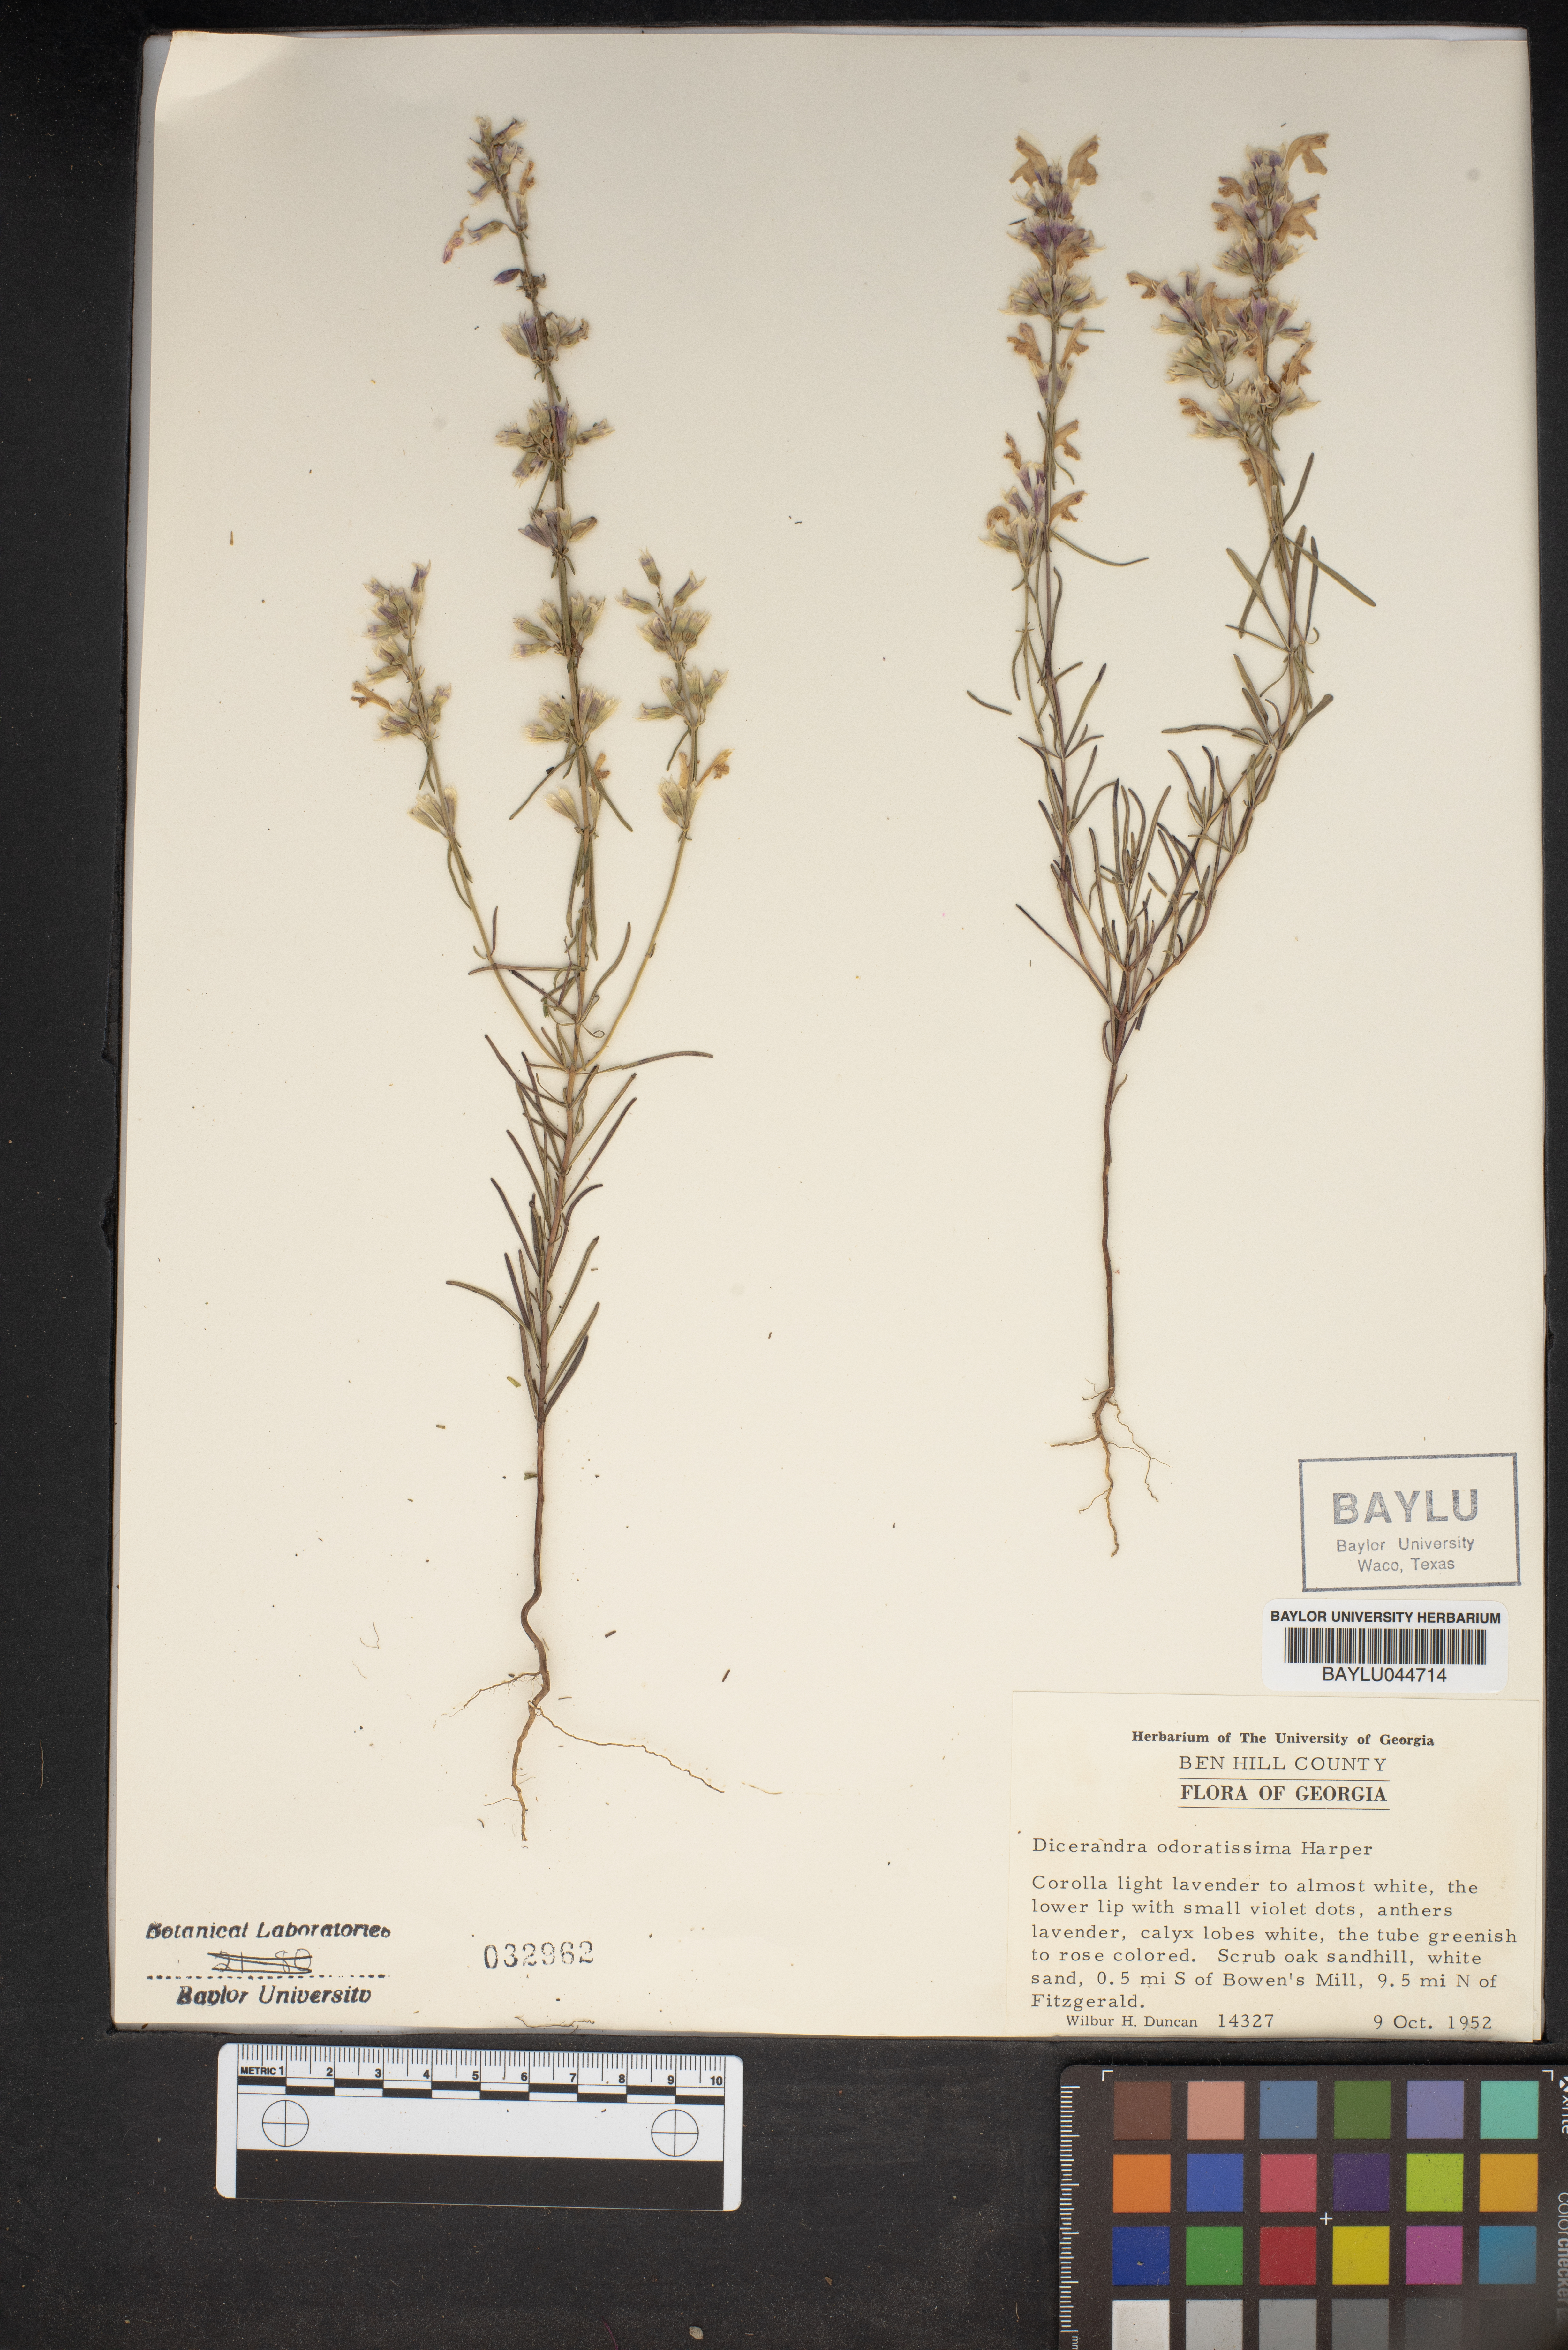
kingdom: Plantae
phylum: Tracheophyta
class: Magnoliopsida
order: Lamiales
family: Lamiaceae
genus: Dicerandra
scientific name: Dicerandra odoratissima
